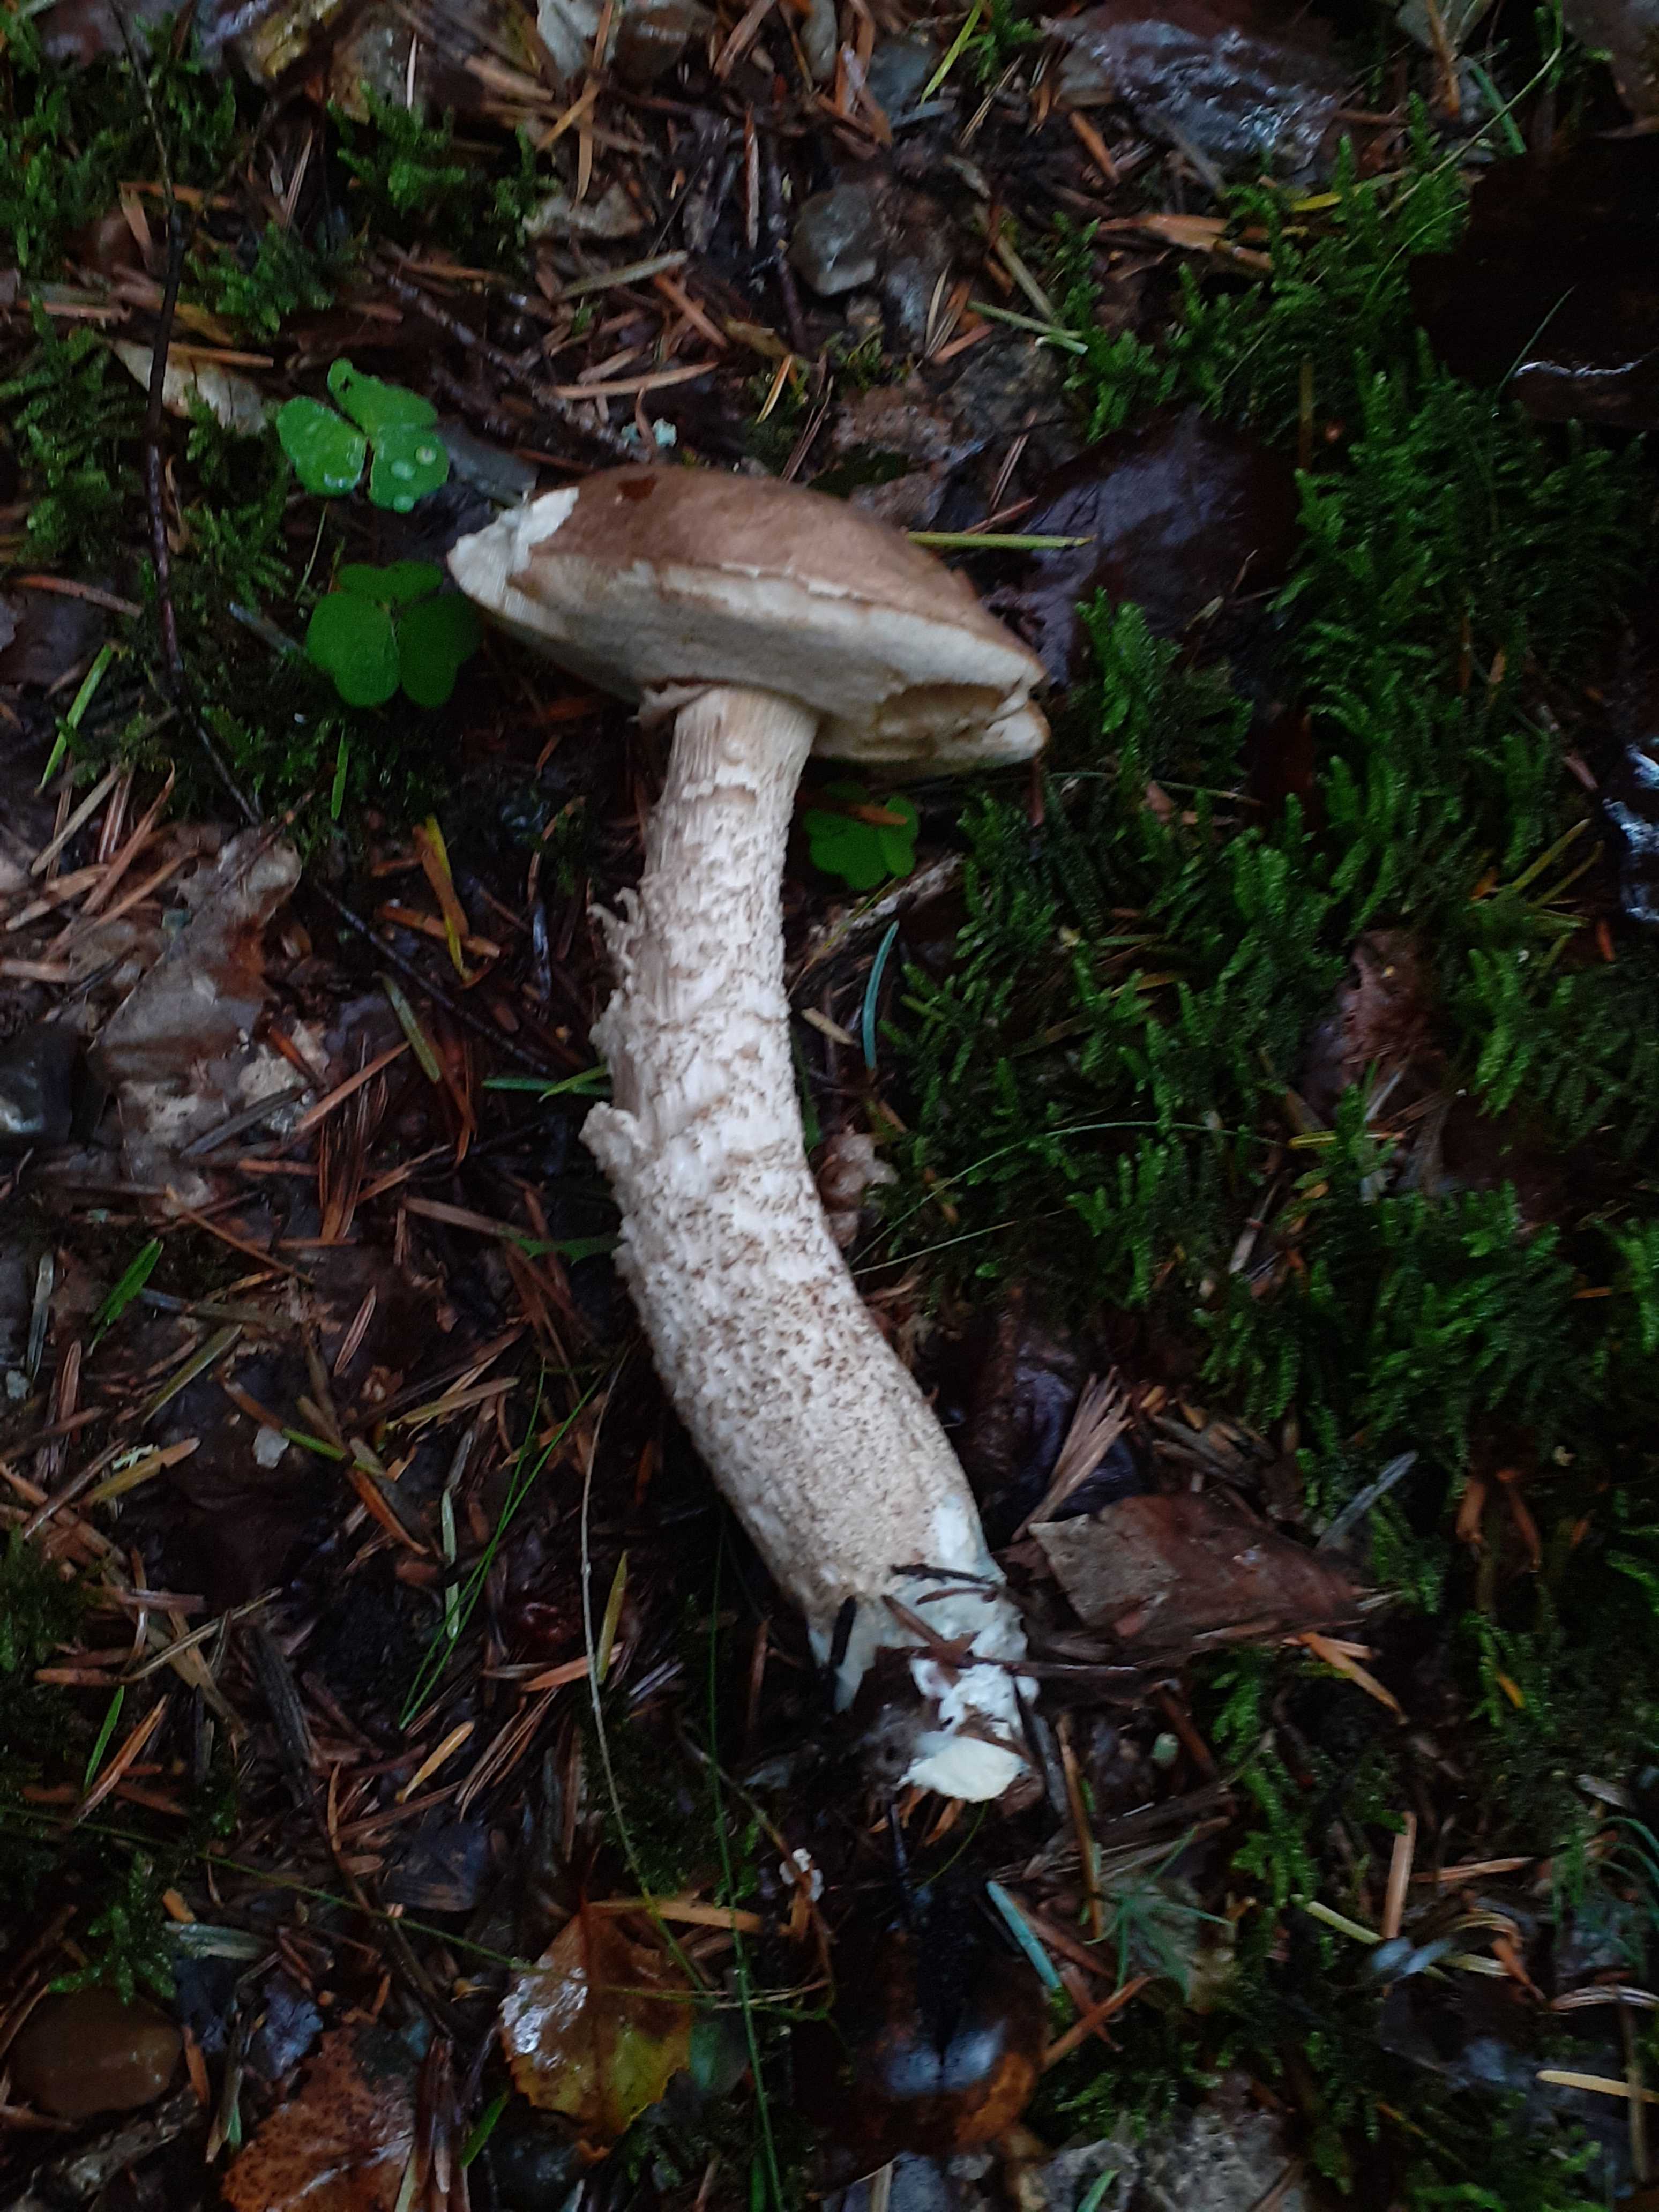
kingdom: Fungi
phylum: Basidiomycota
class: Agaricomycetes
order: Boletales
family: Boletaceae
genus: Leccinum
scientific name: Leccinum
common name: skælrørhat
